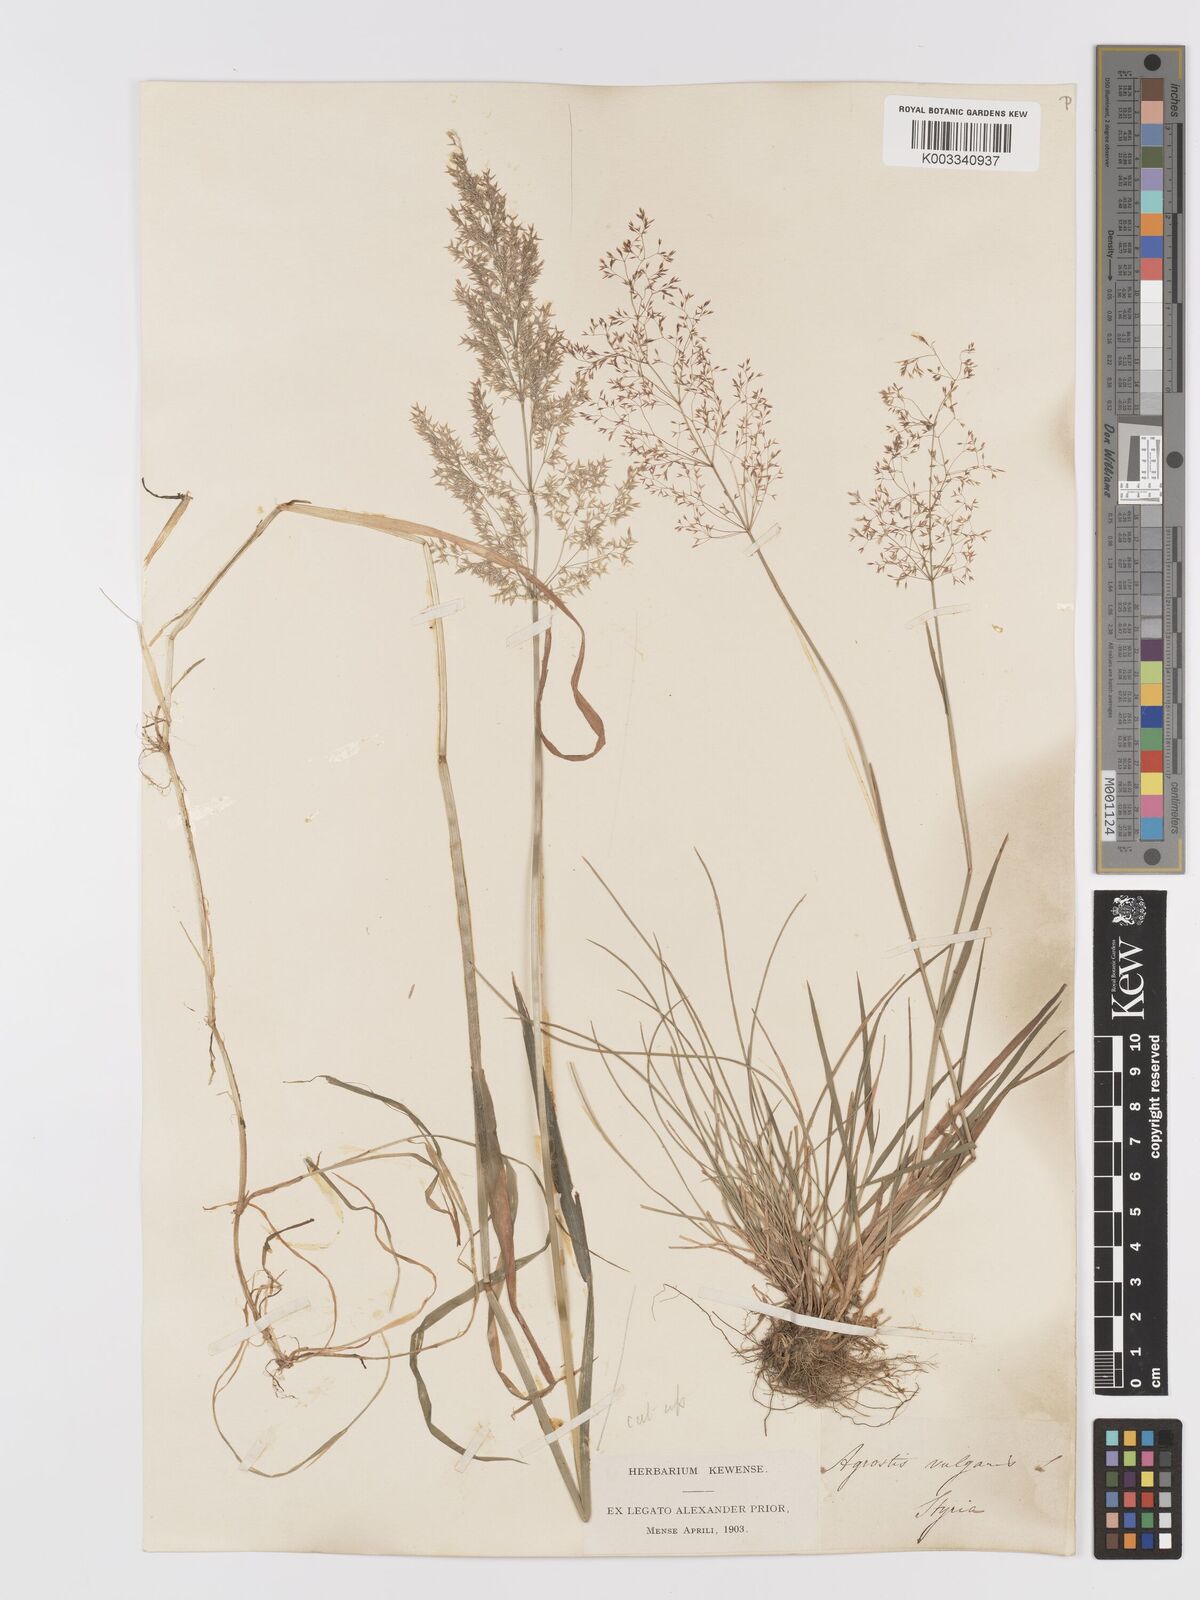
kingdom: Plantae
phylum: Tracheophyta
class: Liliopsida
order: Poales
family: Poaceae
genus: Agrostis
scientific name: Agrostis capillaris
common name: Colonial bentgrass
